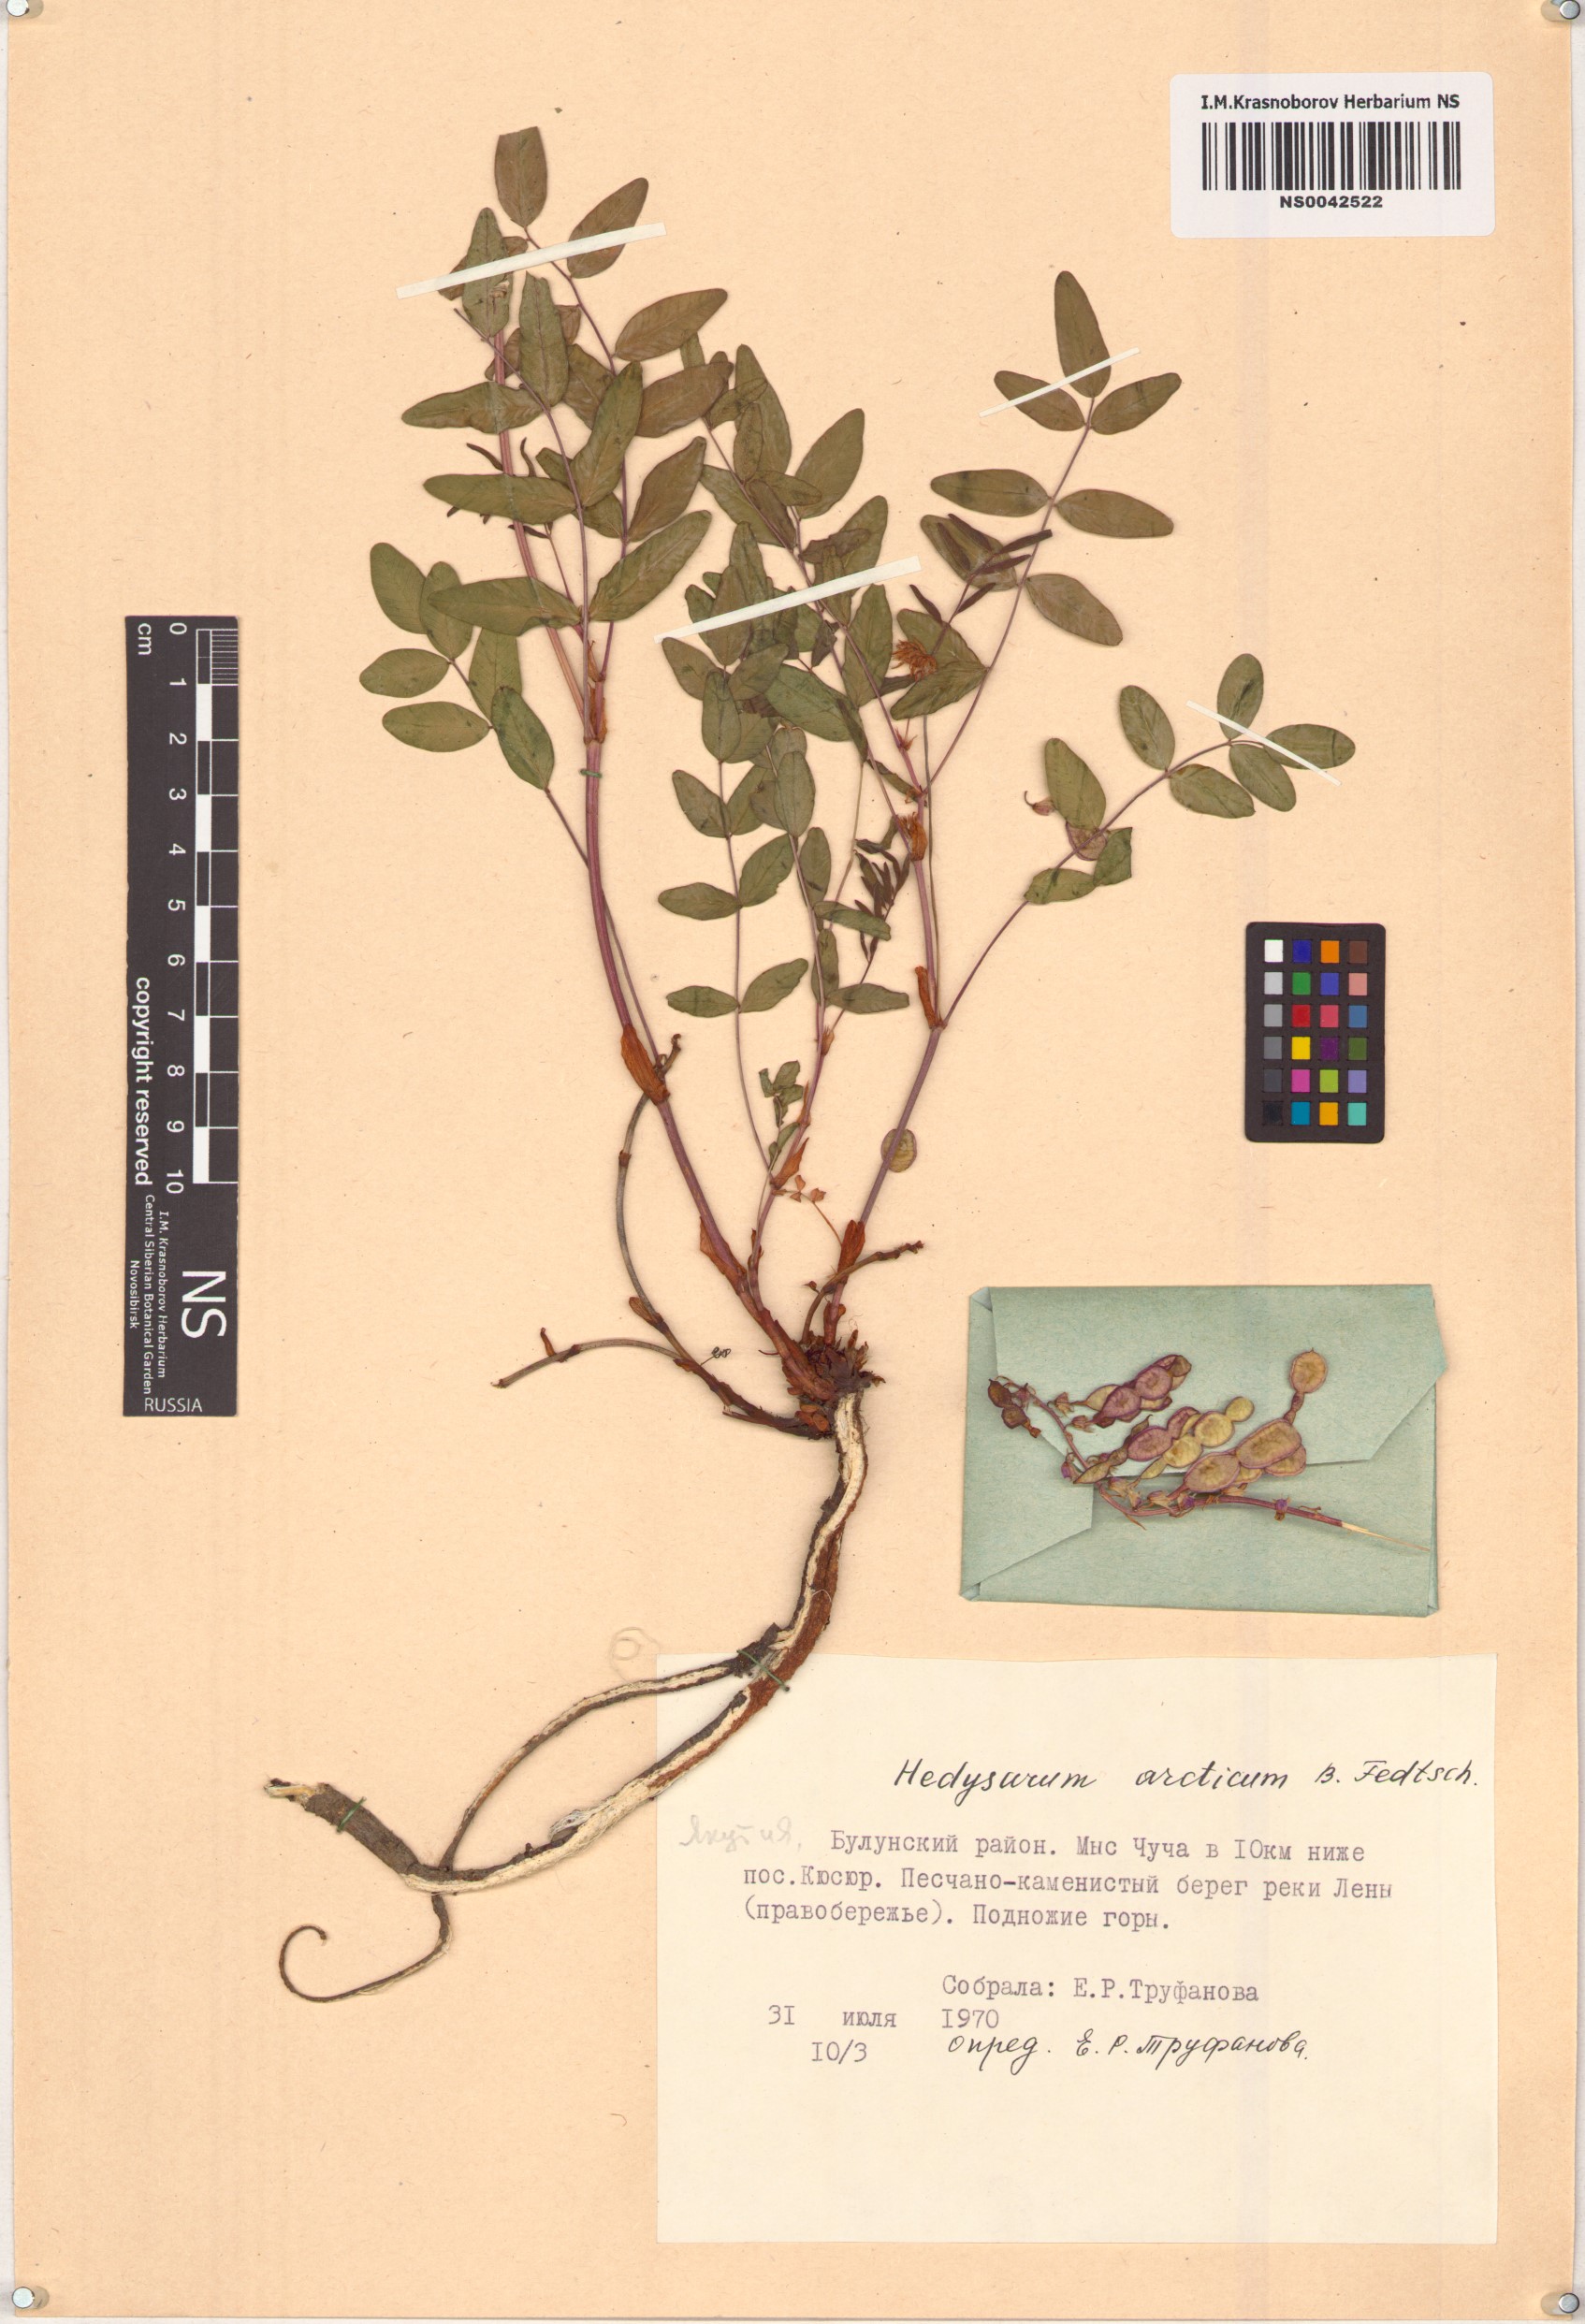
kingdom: Plantae
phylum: Tracheophyta
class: Magnoliopsida
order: Fabales
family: Fabaceae
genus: Hedysarum
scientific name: Hedysarum hedysaroides
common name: Alpine french-honeysuckle
